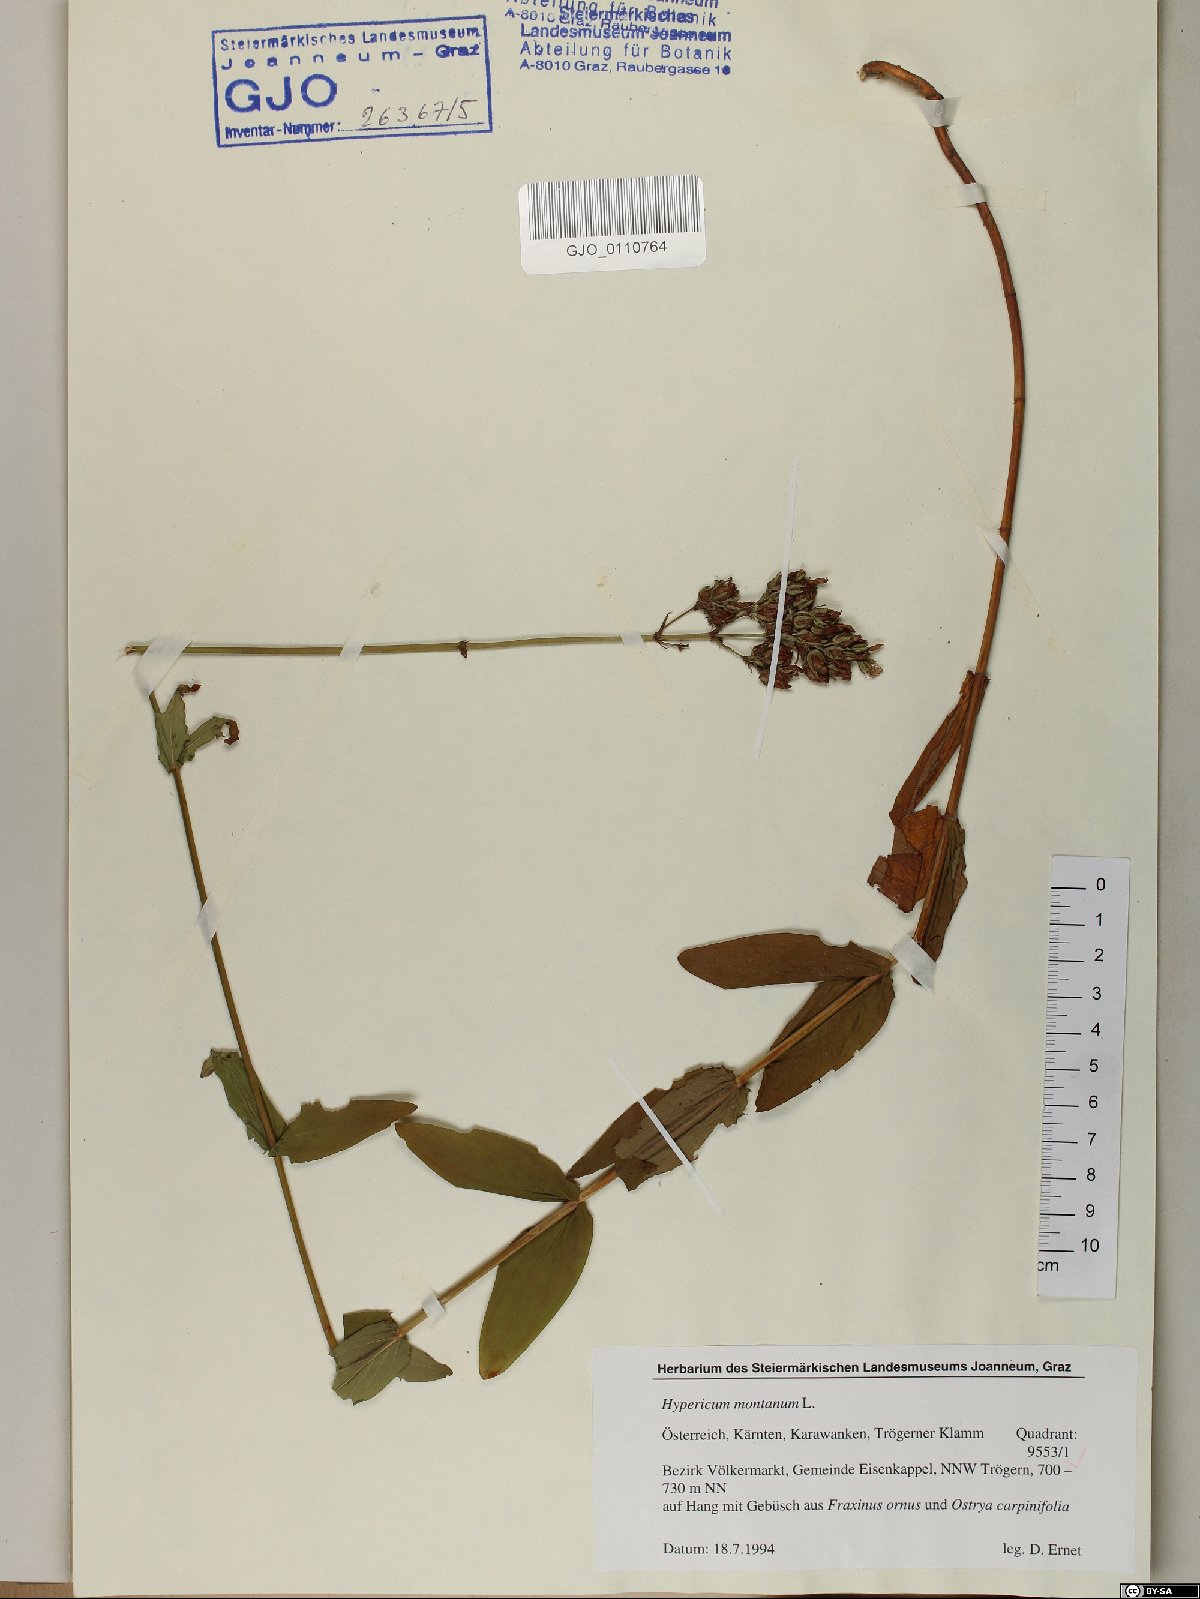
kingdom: Plantae
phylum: Tracheophyta
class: Magnoliopsida
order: Malpighiales
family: Hypericaceae
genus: Hypericum
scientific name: Hypericum montanum
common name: Pale st. john's-wort
